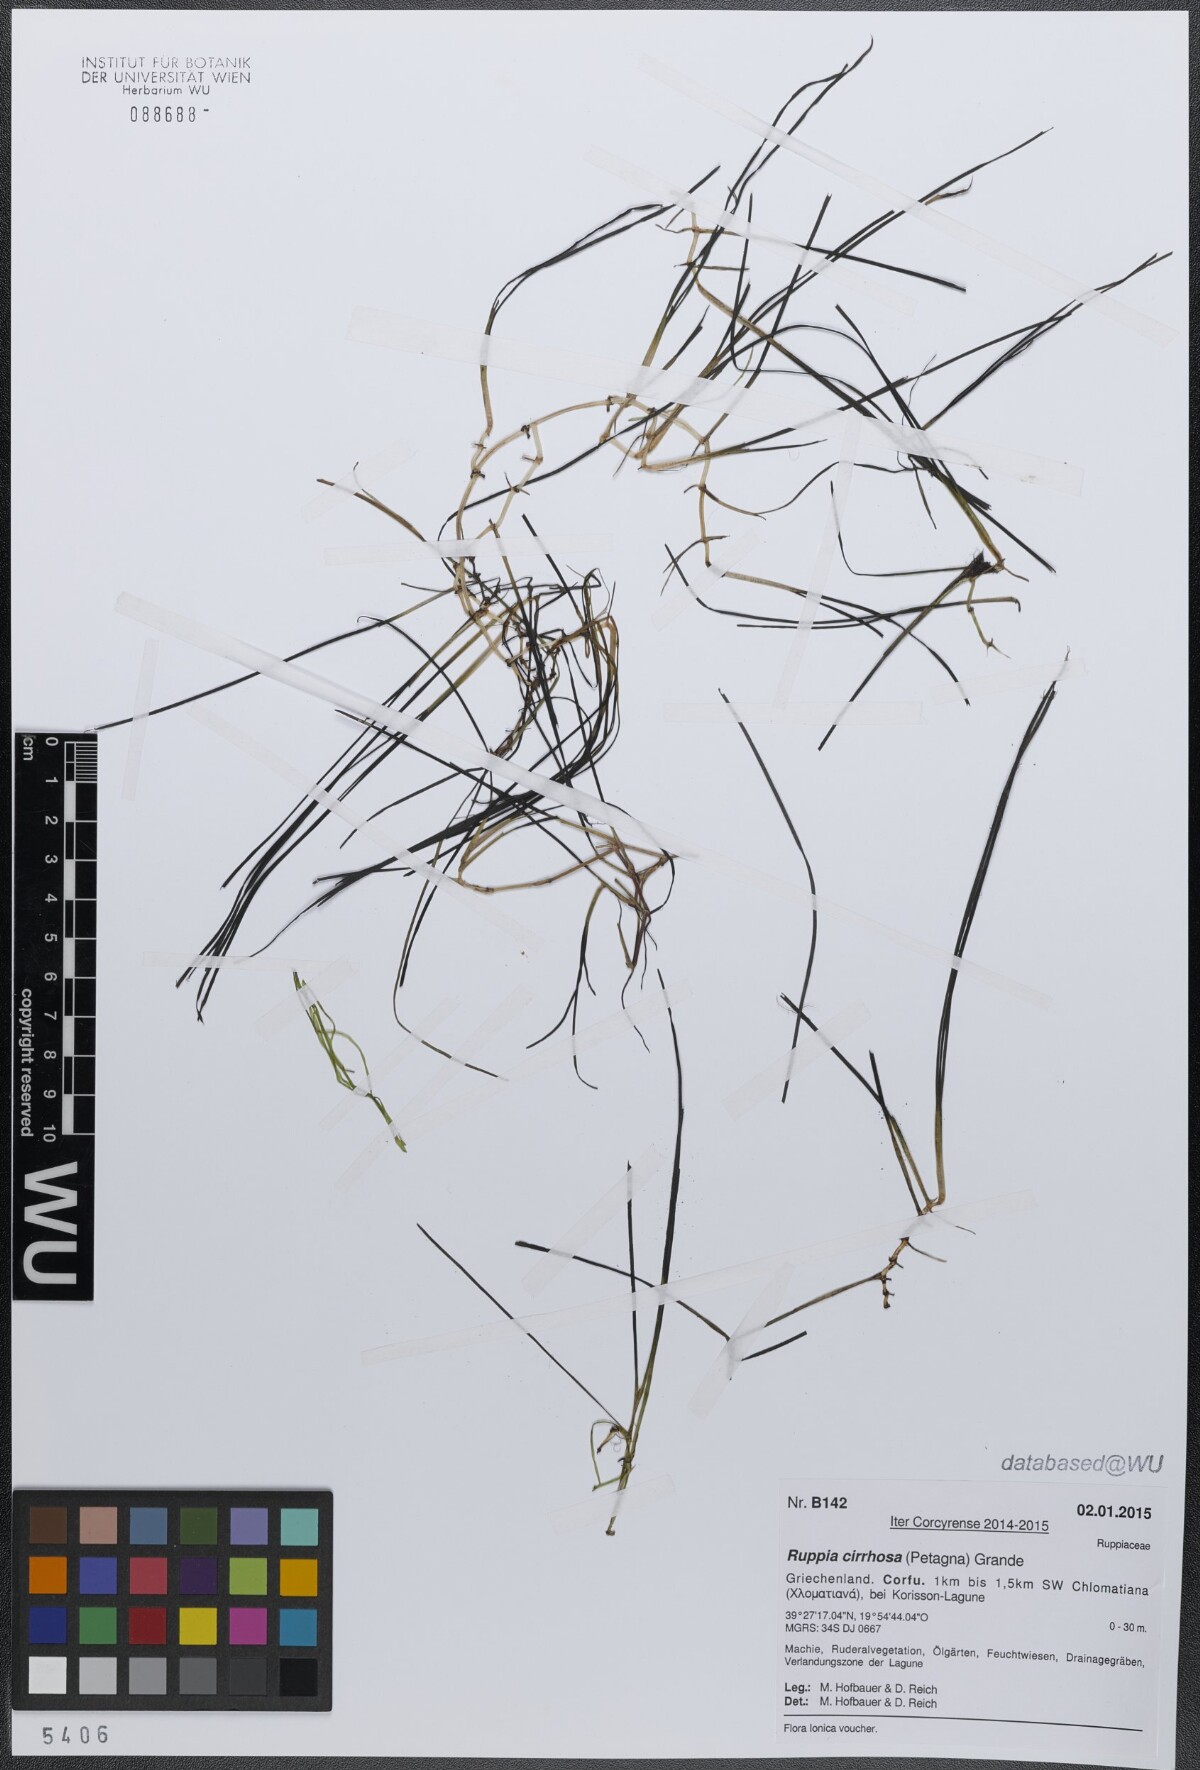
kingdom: Plantae
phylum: Tracheophyta
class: Liliopsida
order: Alismatales
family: Ruppiaceae
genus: Ruppia
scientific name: Ruppia cirrhosa
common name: Spiral tasselweed
